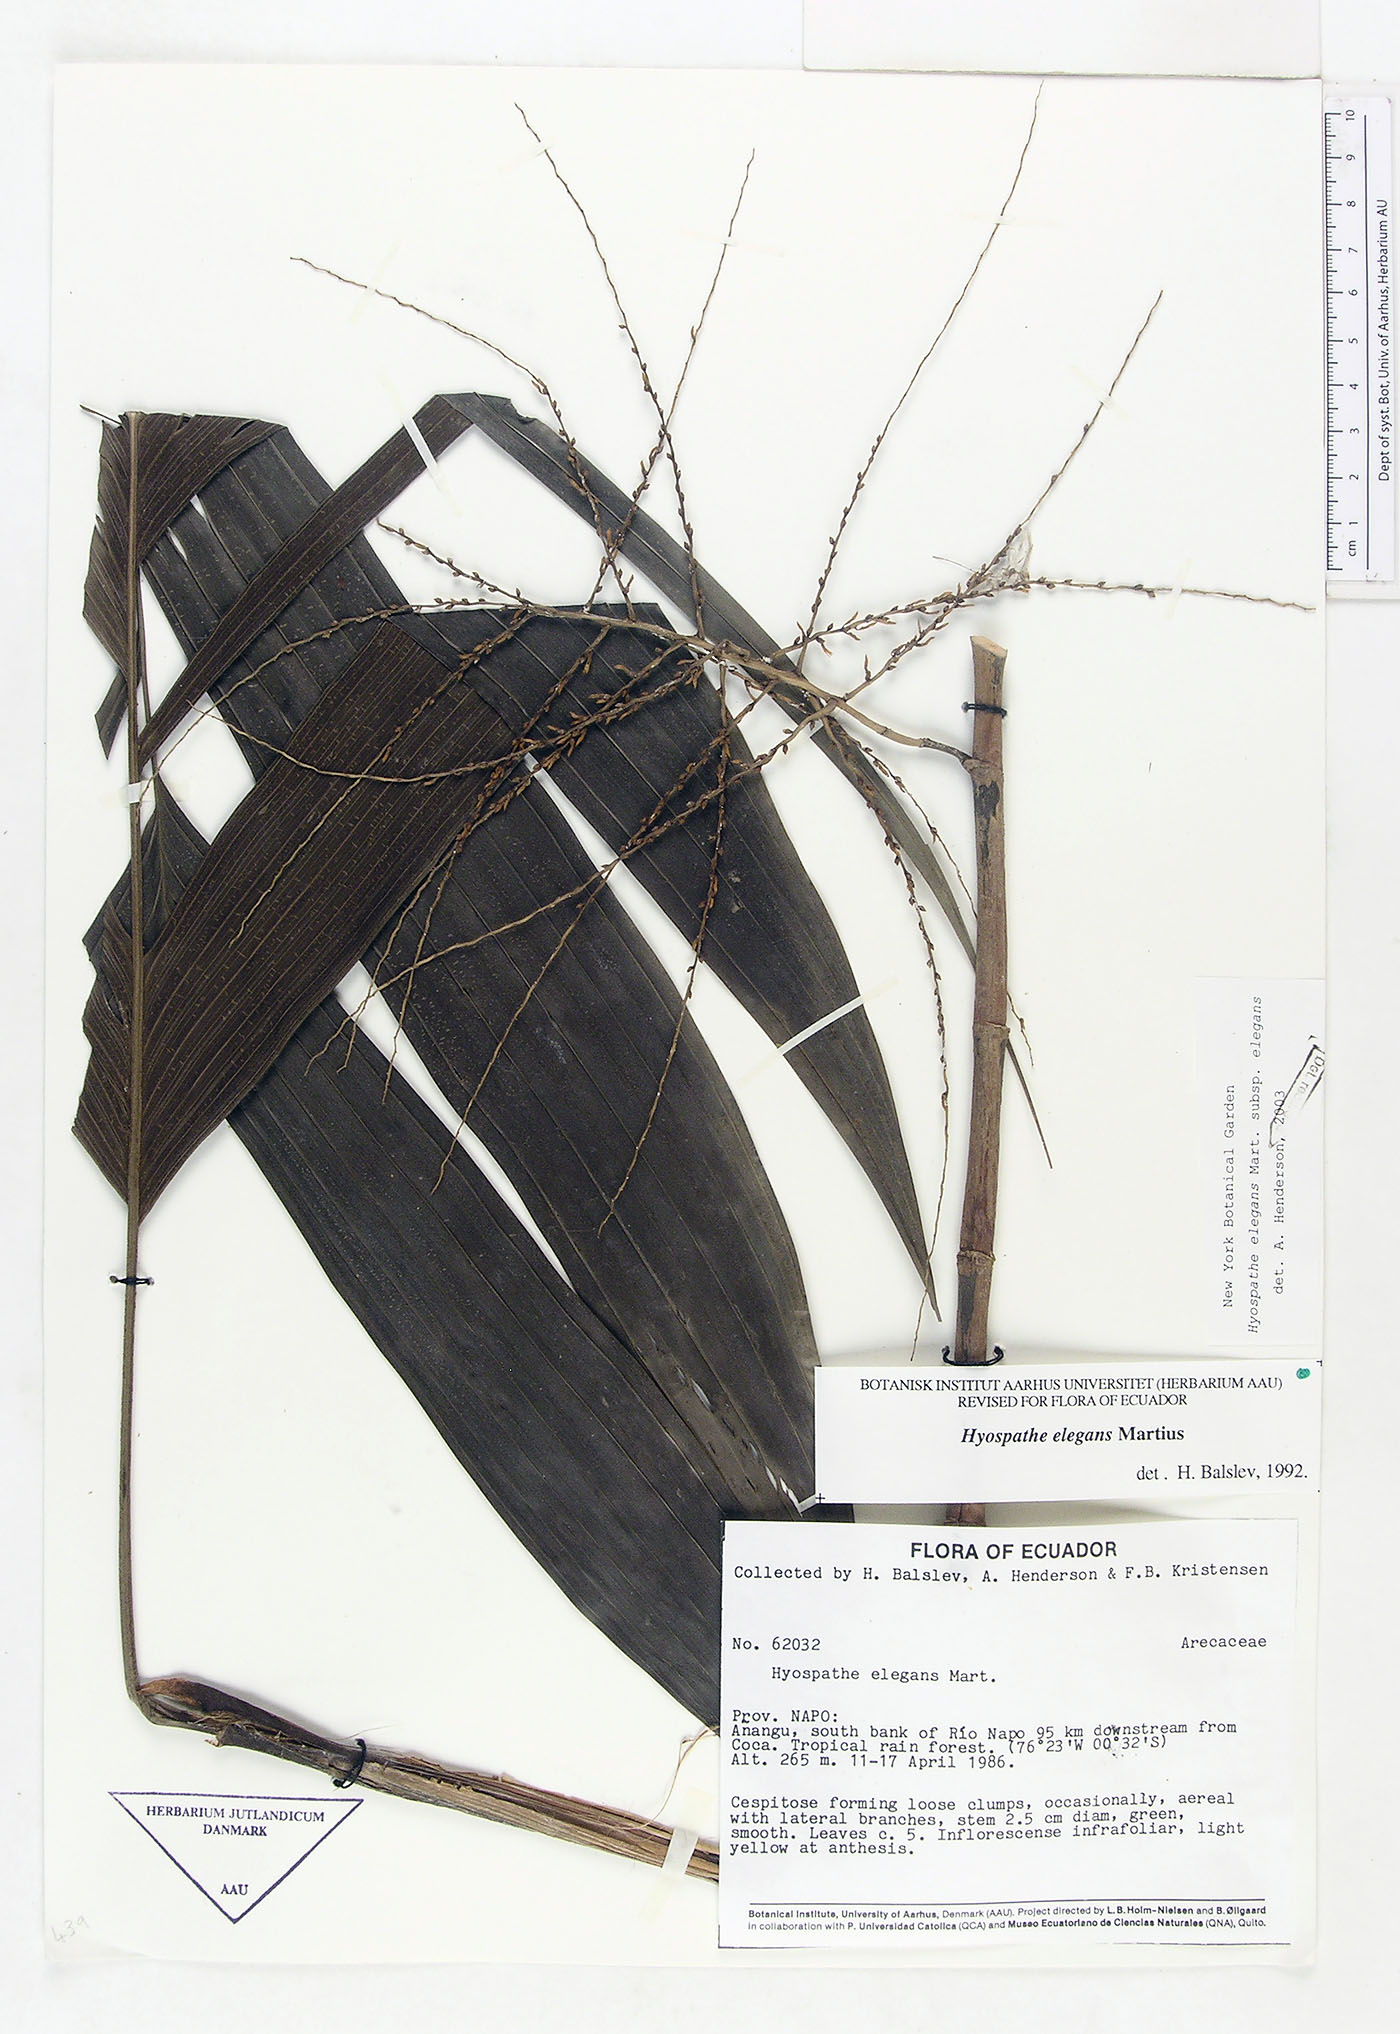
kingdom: Plantae
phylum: Tracheophyta
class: Liliopsida
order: Arecales
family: Arecaceae
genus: Hyospathe
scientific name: Hyospathe elegans
